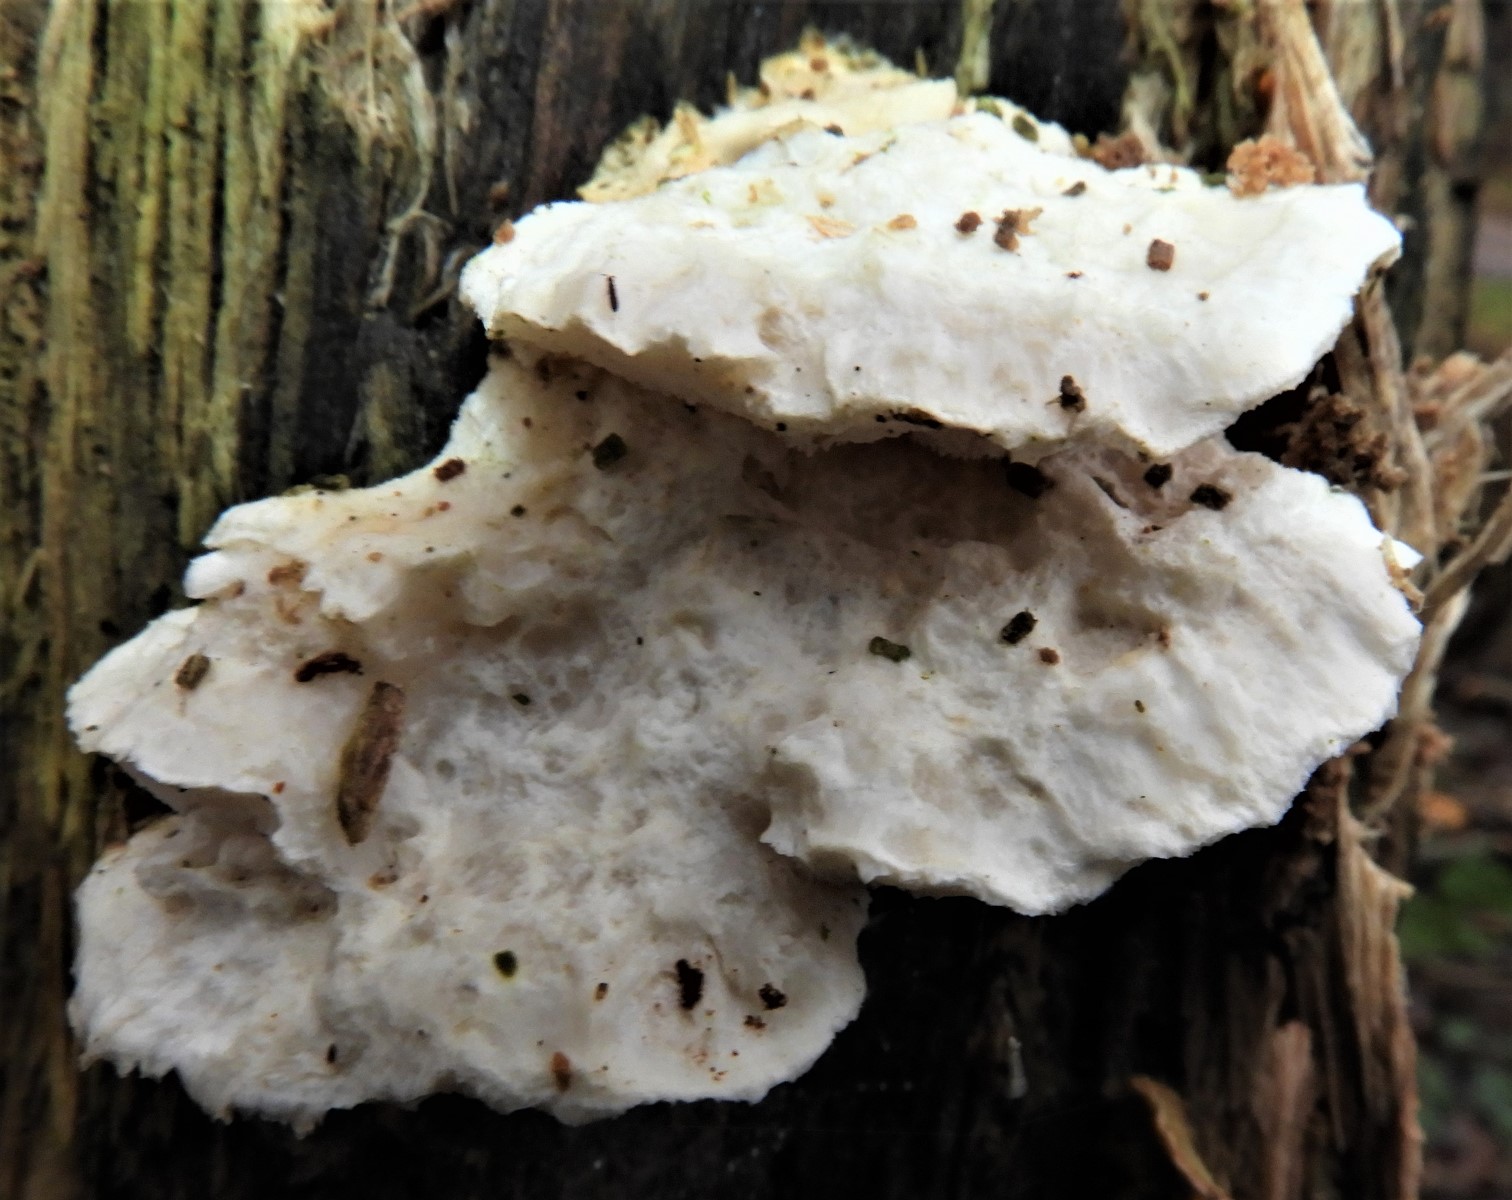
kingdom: Fungi
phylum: Basidiomycota
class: Agaricomycetes
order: Polyporales
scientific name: Polyporales
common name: poresvampordenen
